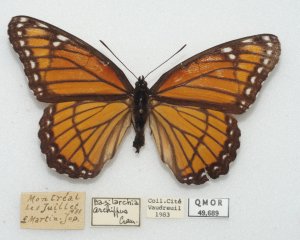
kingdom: Animalia
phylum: Arthropoda
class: Insecta
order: Lepidoptera
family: Nymphalidae
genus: Limenitis
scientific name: Limenitis archippus
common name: Viceroy
